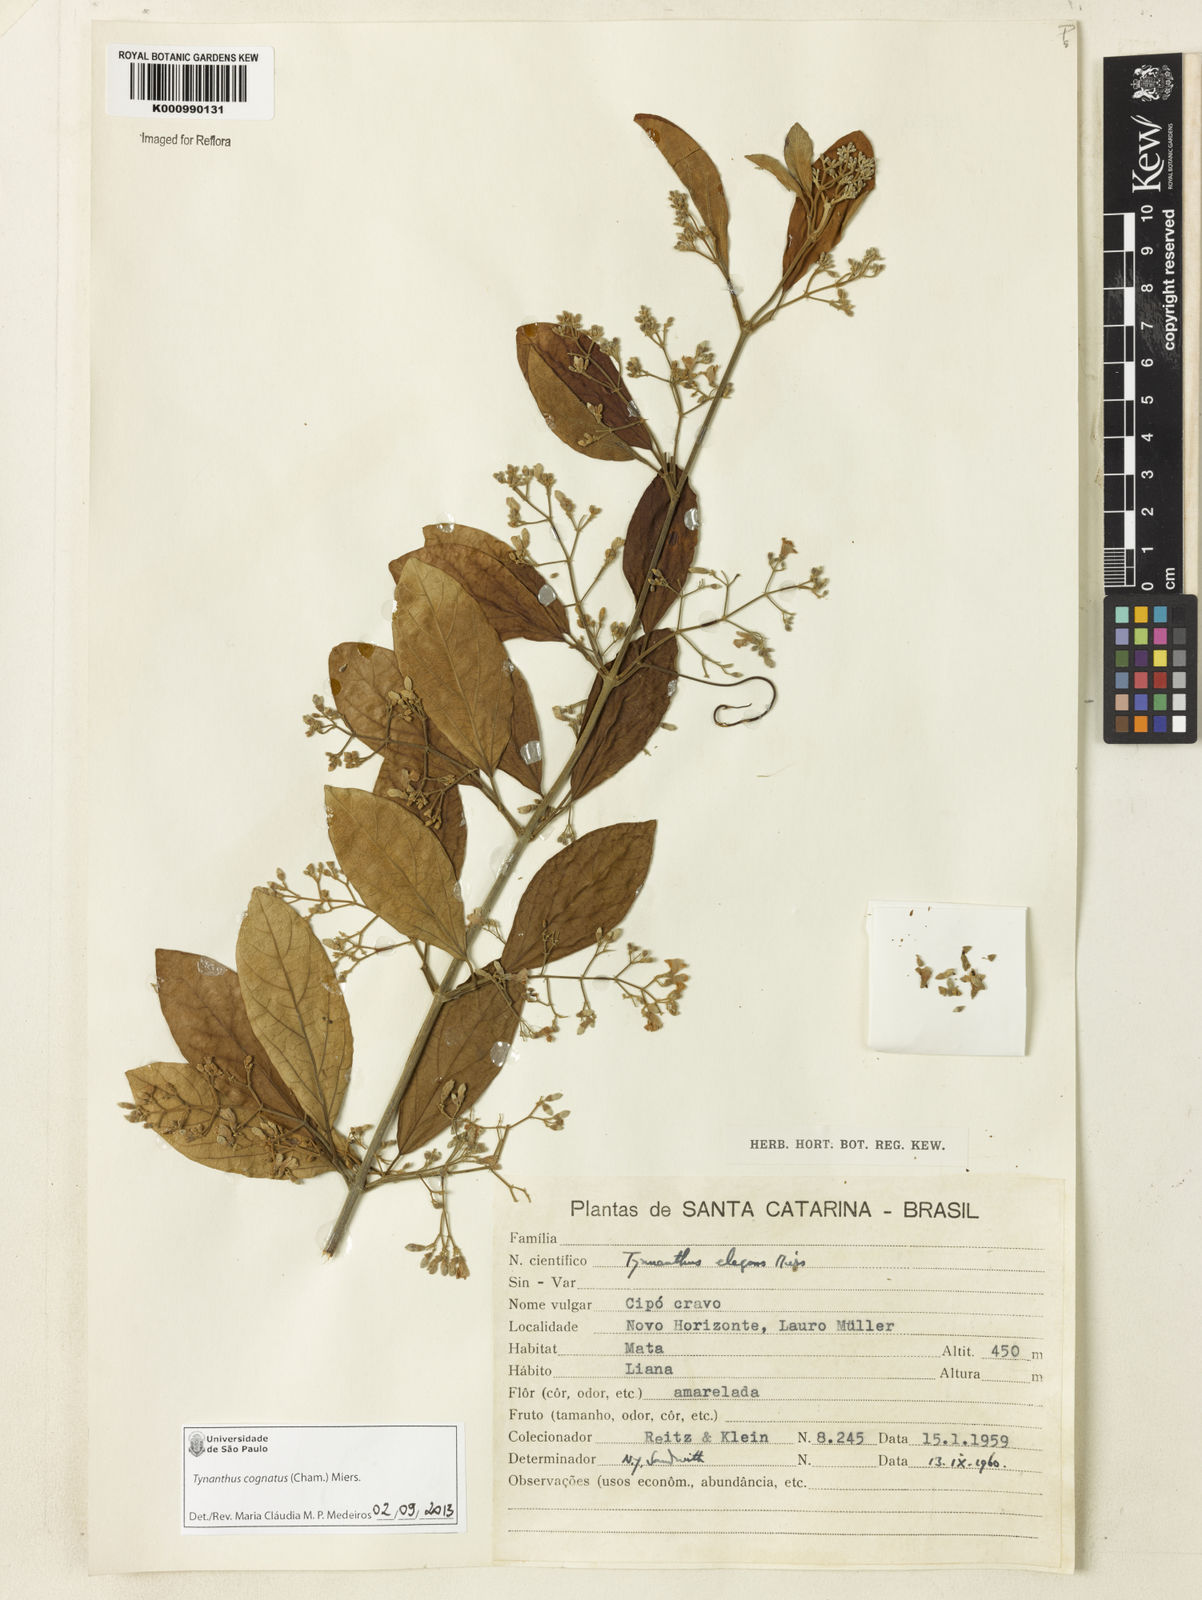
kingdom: Plantae
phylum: Tracheophyta
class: Magnoliopsida
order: Lamiales
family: Bignoniaceae
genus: Tynanthus
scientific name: Tynanthus cognatus
